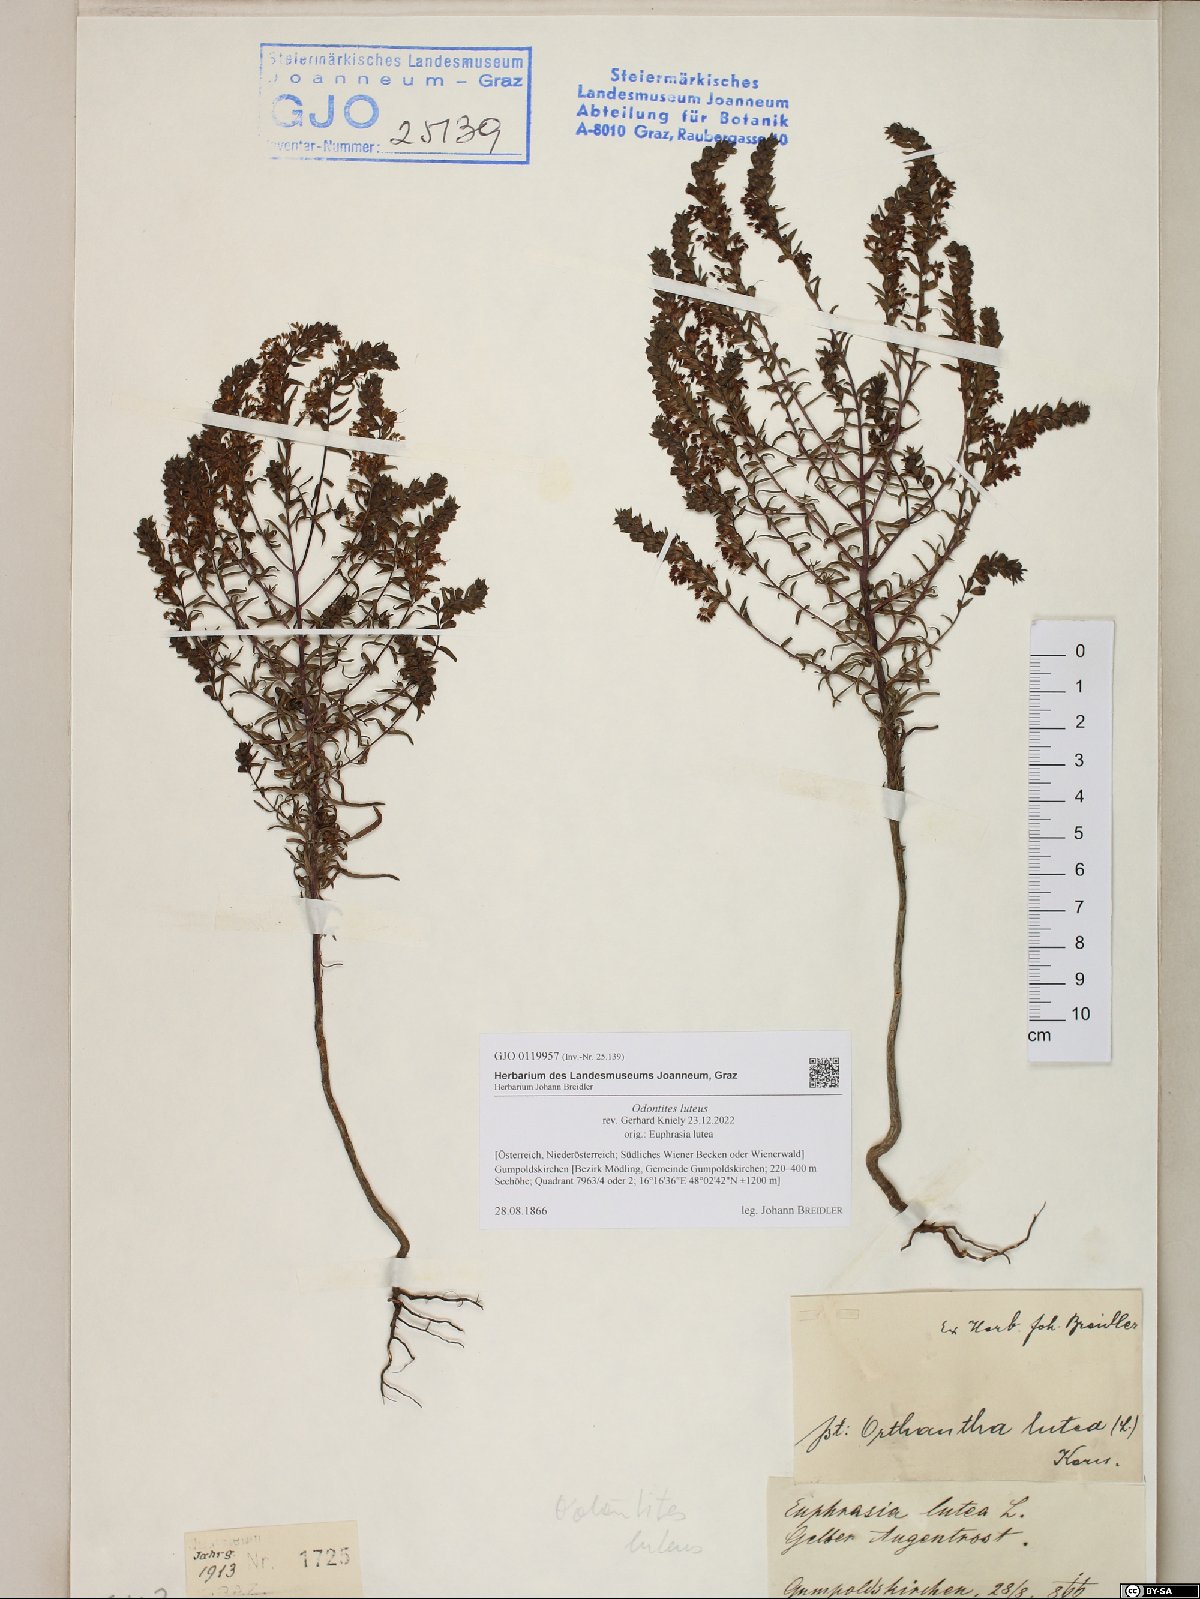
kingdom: Plantae
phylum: Tracheophyta
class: Magnoliopsida
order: Lamiales
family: Orobanchaceae
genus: Odontites
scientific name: Odontites luteus
